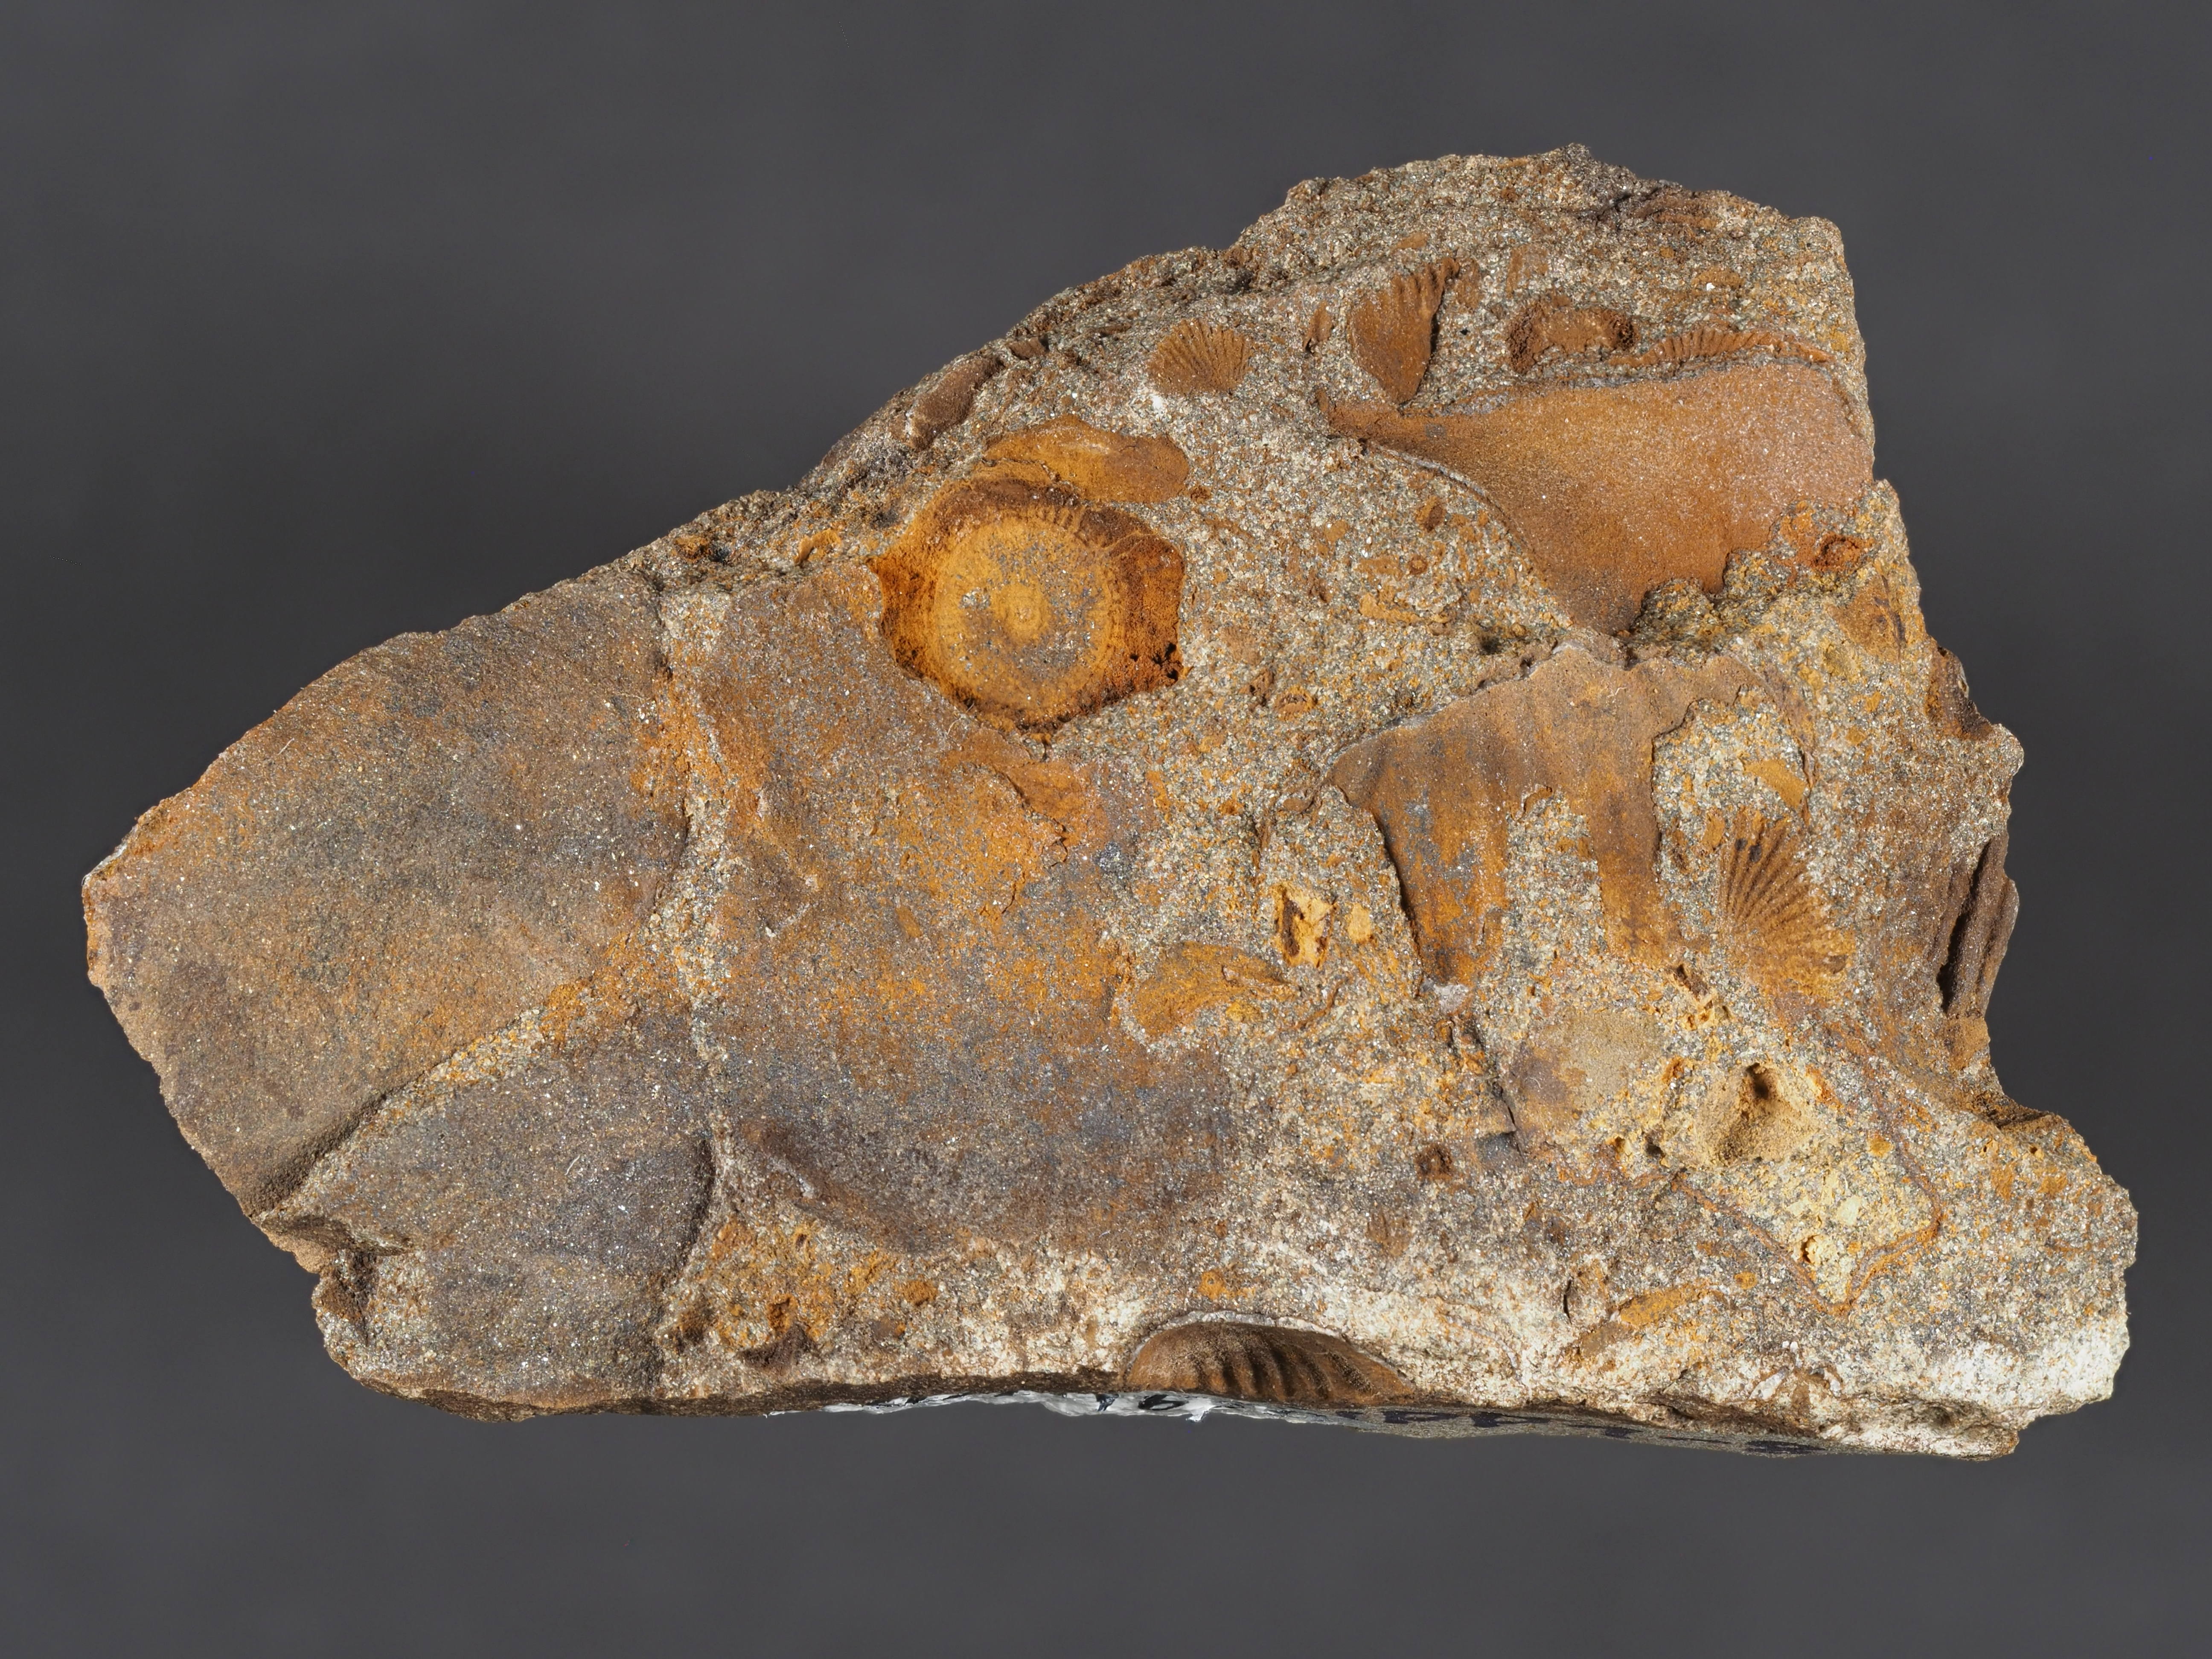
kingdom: Animalia
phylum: Brachiopoda
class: Rhynchonellata
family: Delthyrididae
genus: Euryspirifer
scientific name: Euryspirifer
